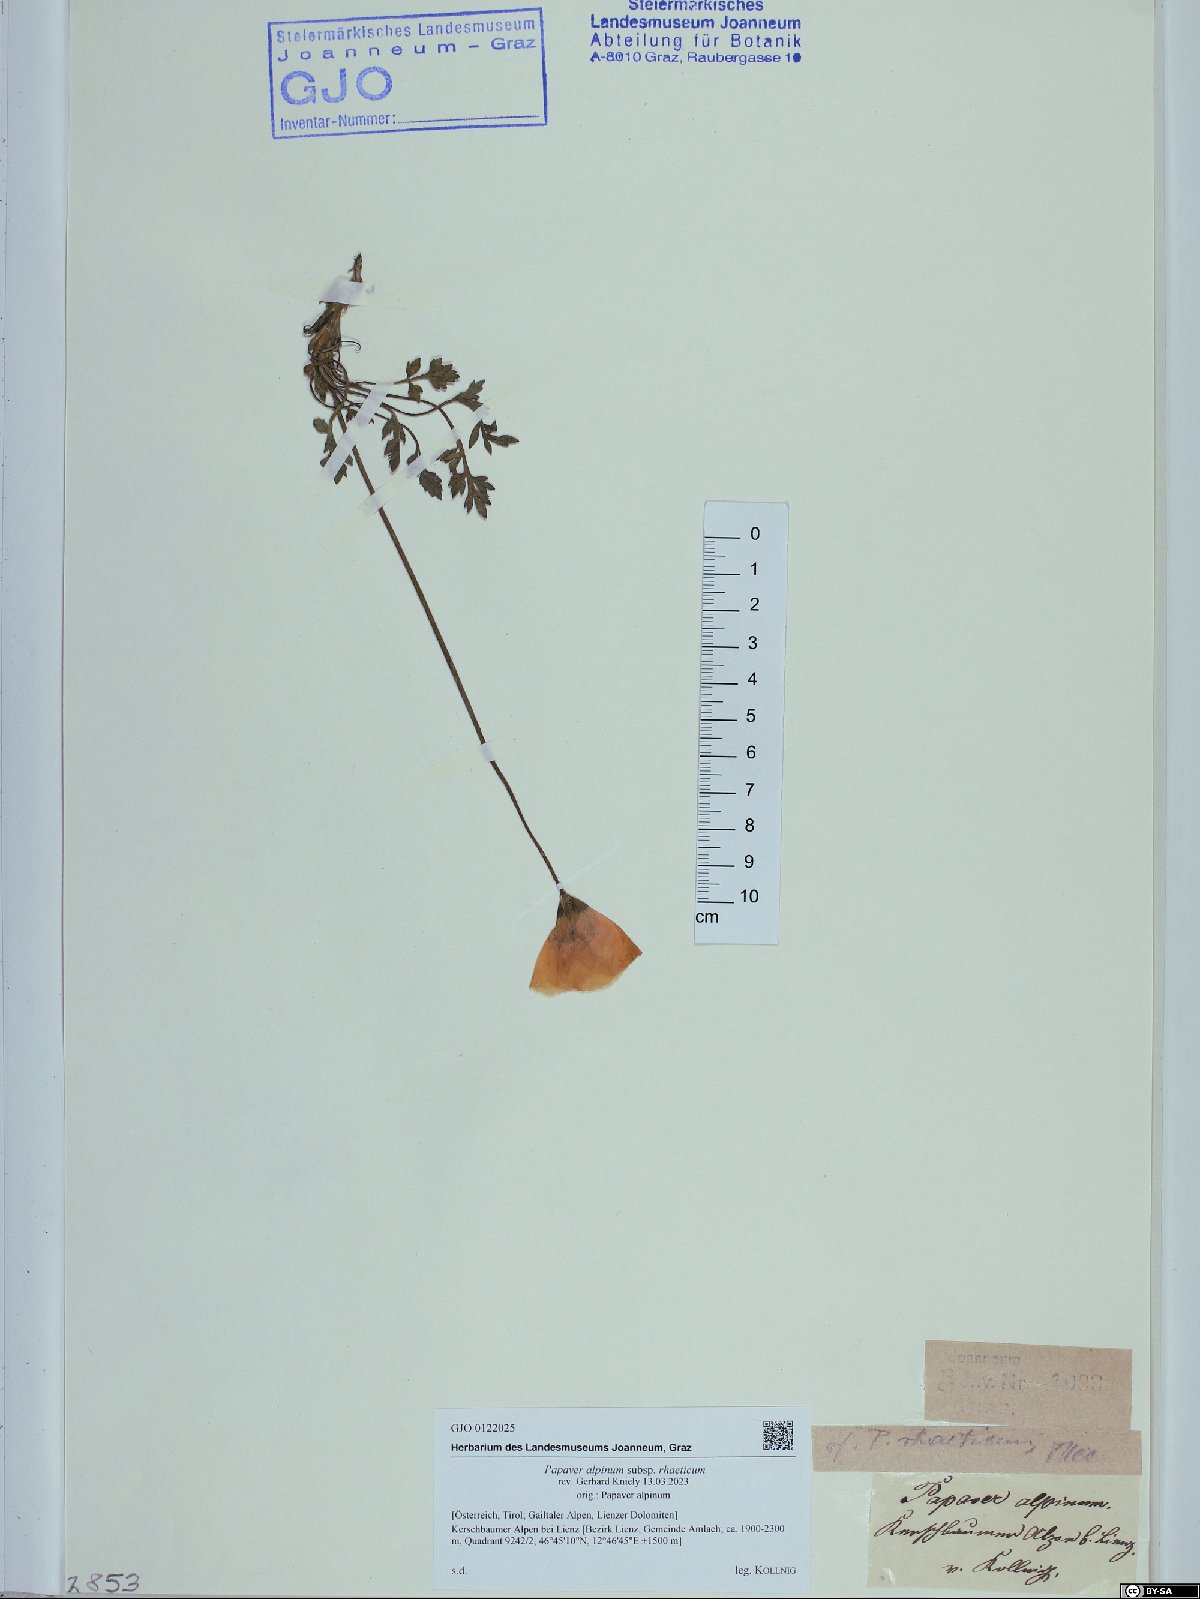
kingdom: Plantae
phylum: Tracheophyta
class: Magnoliopsida
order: Ranunculales
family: Papaveraceae
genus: Papaver
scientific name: Papaver alpinum
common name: Austrian poppy
